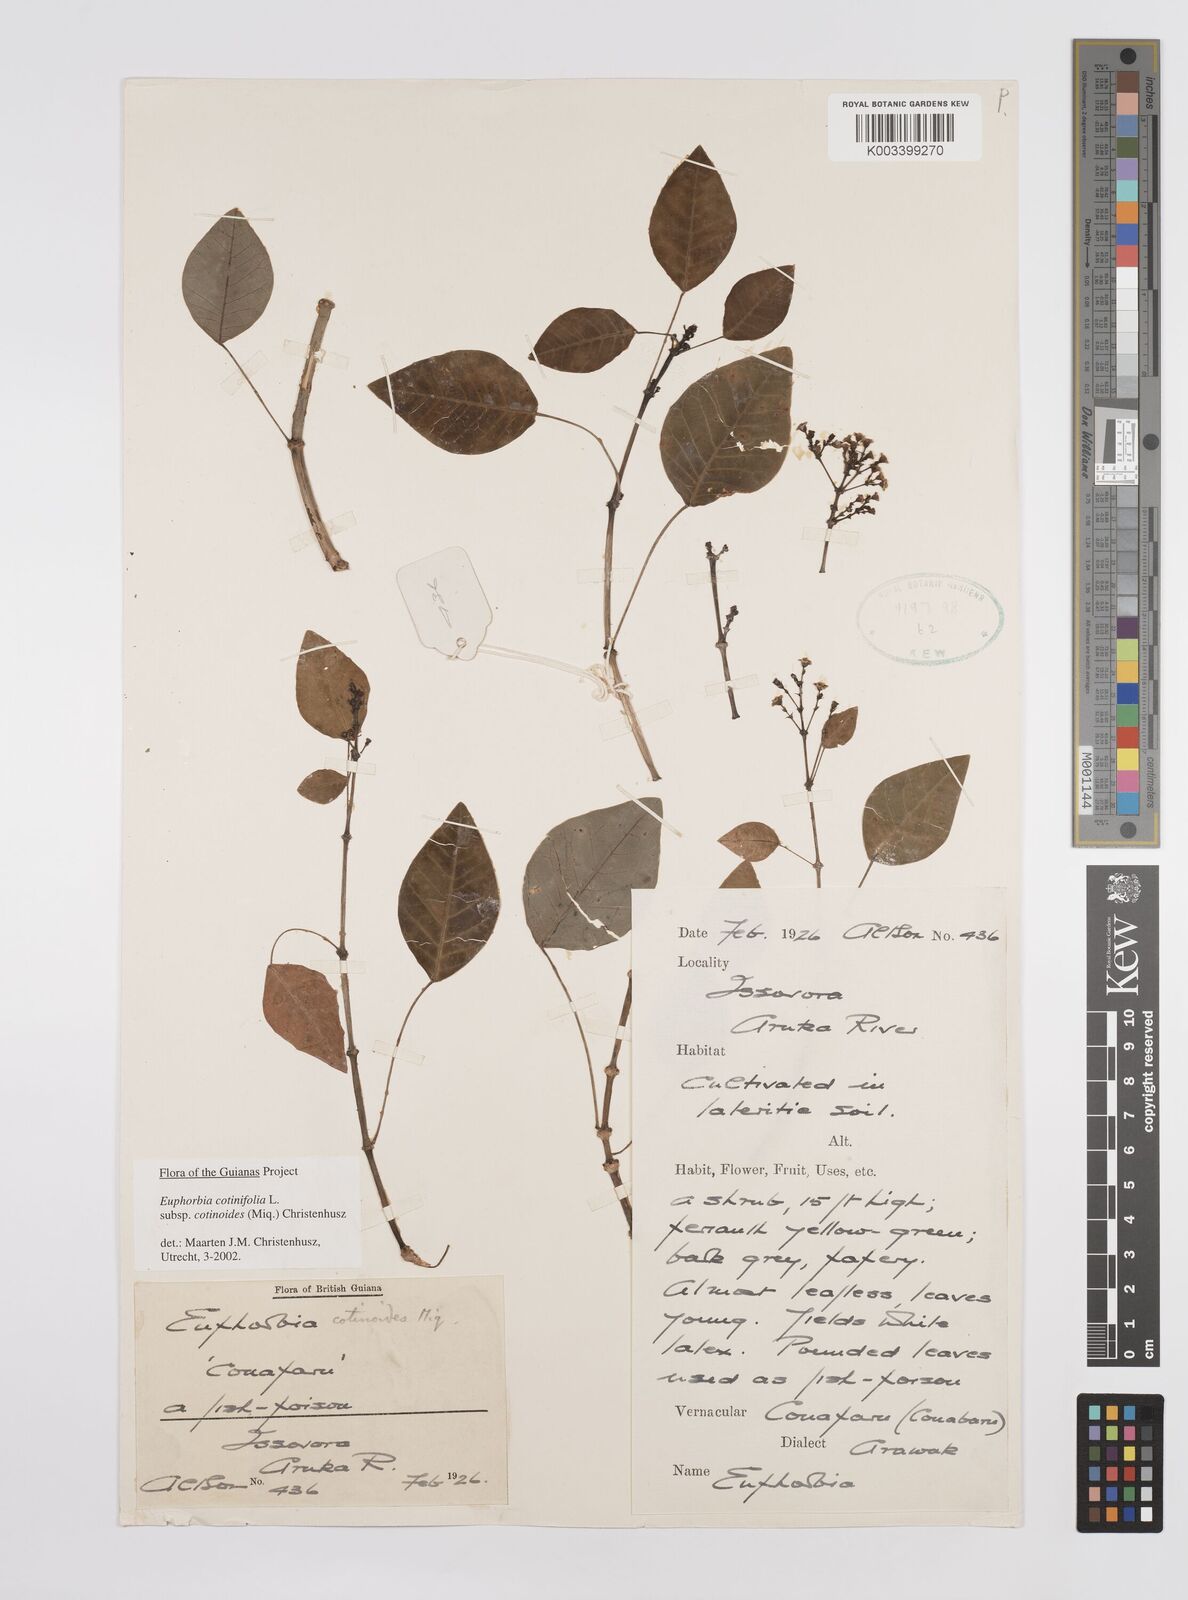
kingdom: Plantae
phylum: Tracheophyta
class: Magnoliopsida
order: Malpighiales
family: Euphorbiaceae
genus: Euphorbia
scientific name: Euphorbia cotinifolia
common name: Tropical smokebush
